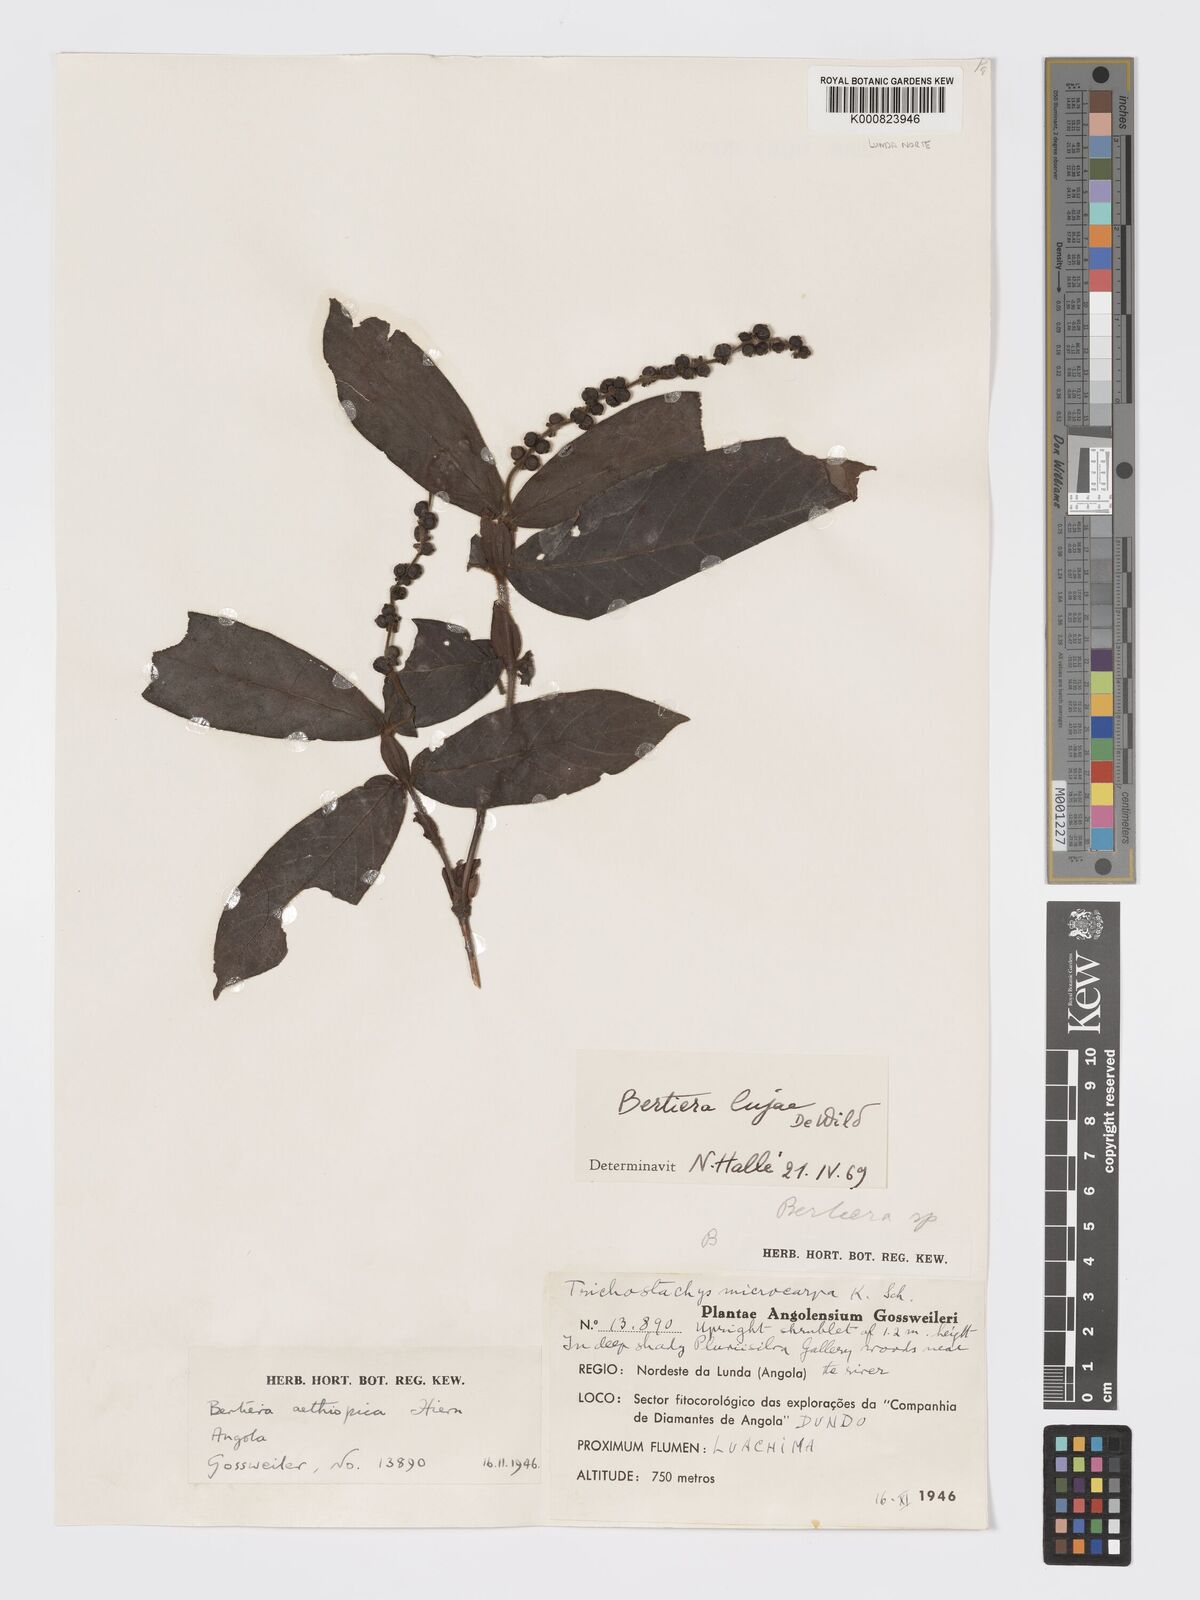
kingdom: Plantae
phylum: Tracheophyta
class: Magnoliopsida
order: Gentianales
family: Rubiaceae
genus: Bertiera
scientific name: Bertiera lujae
